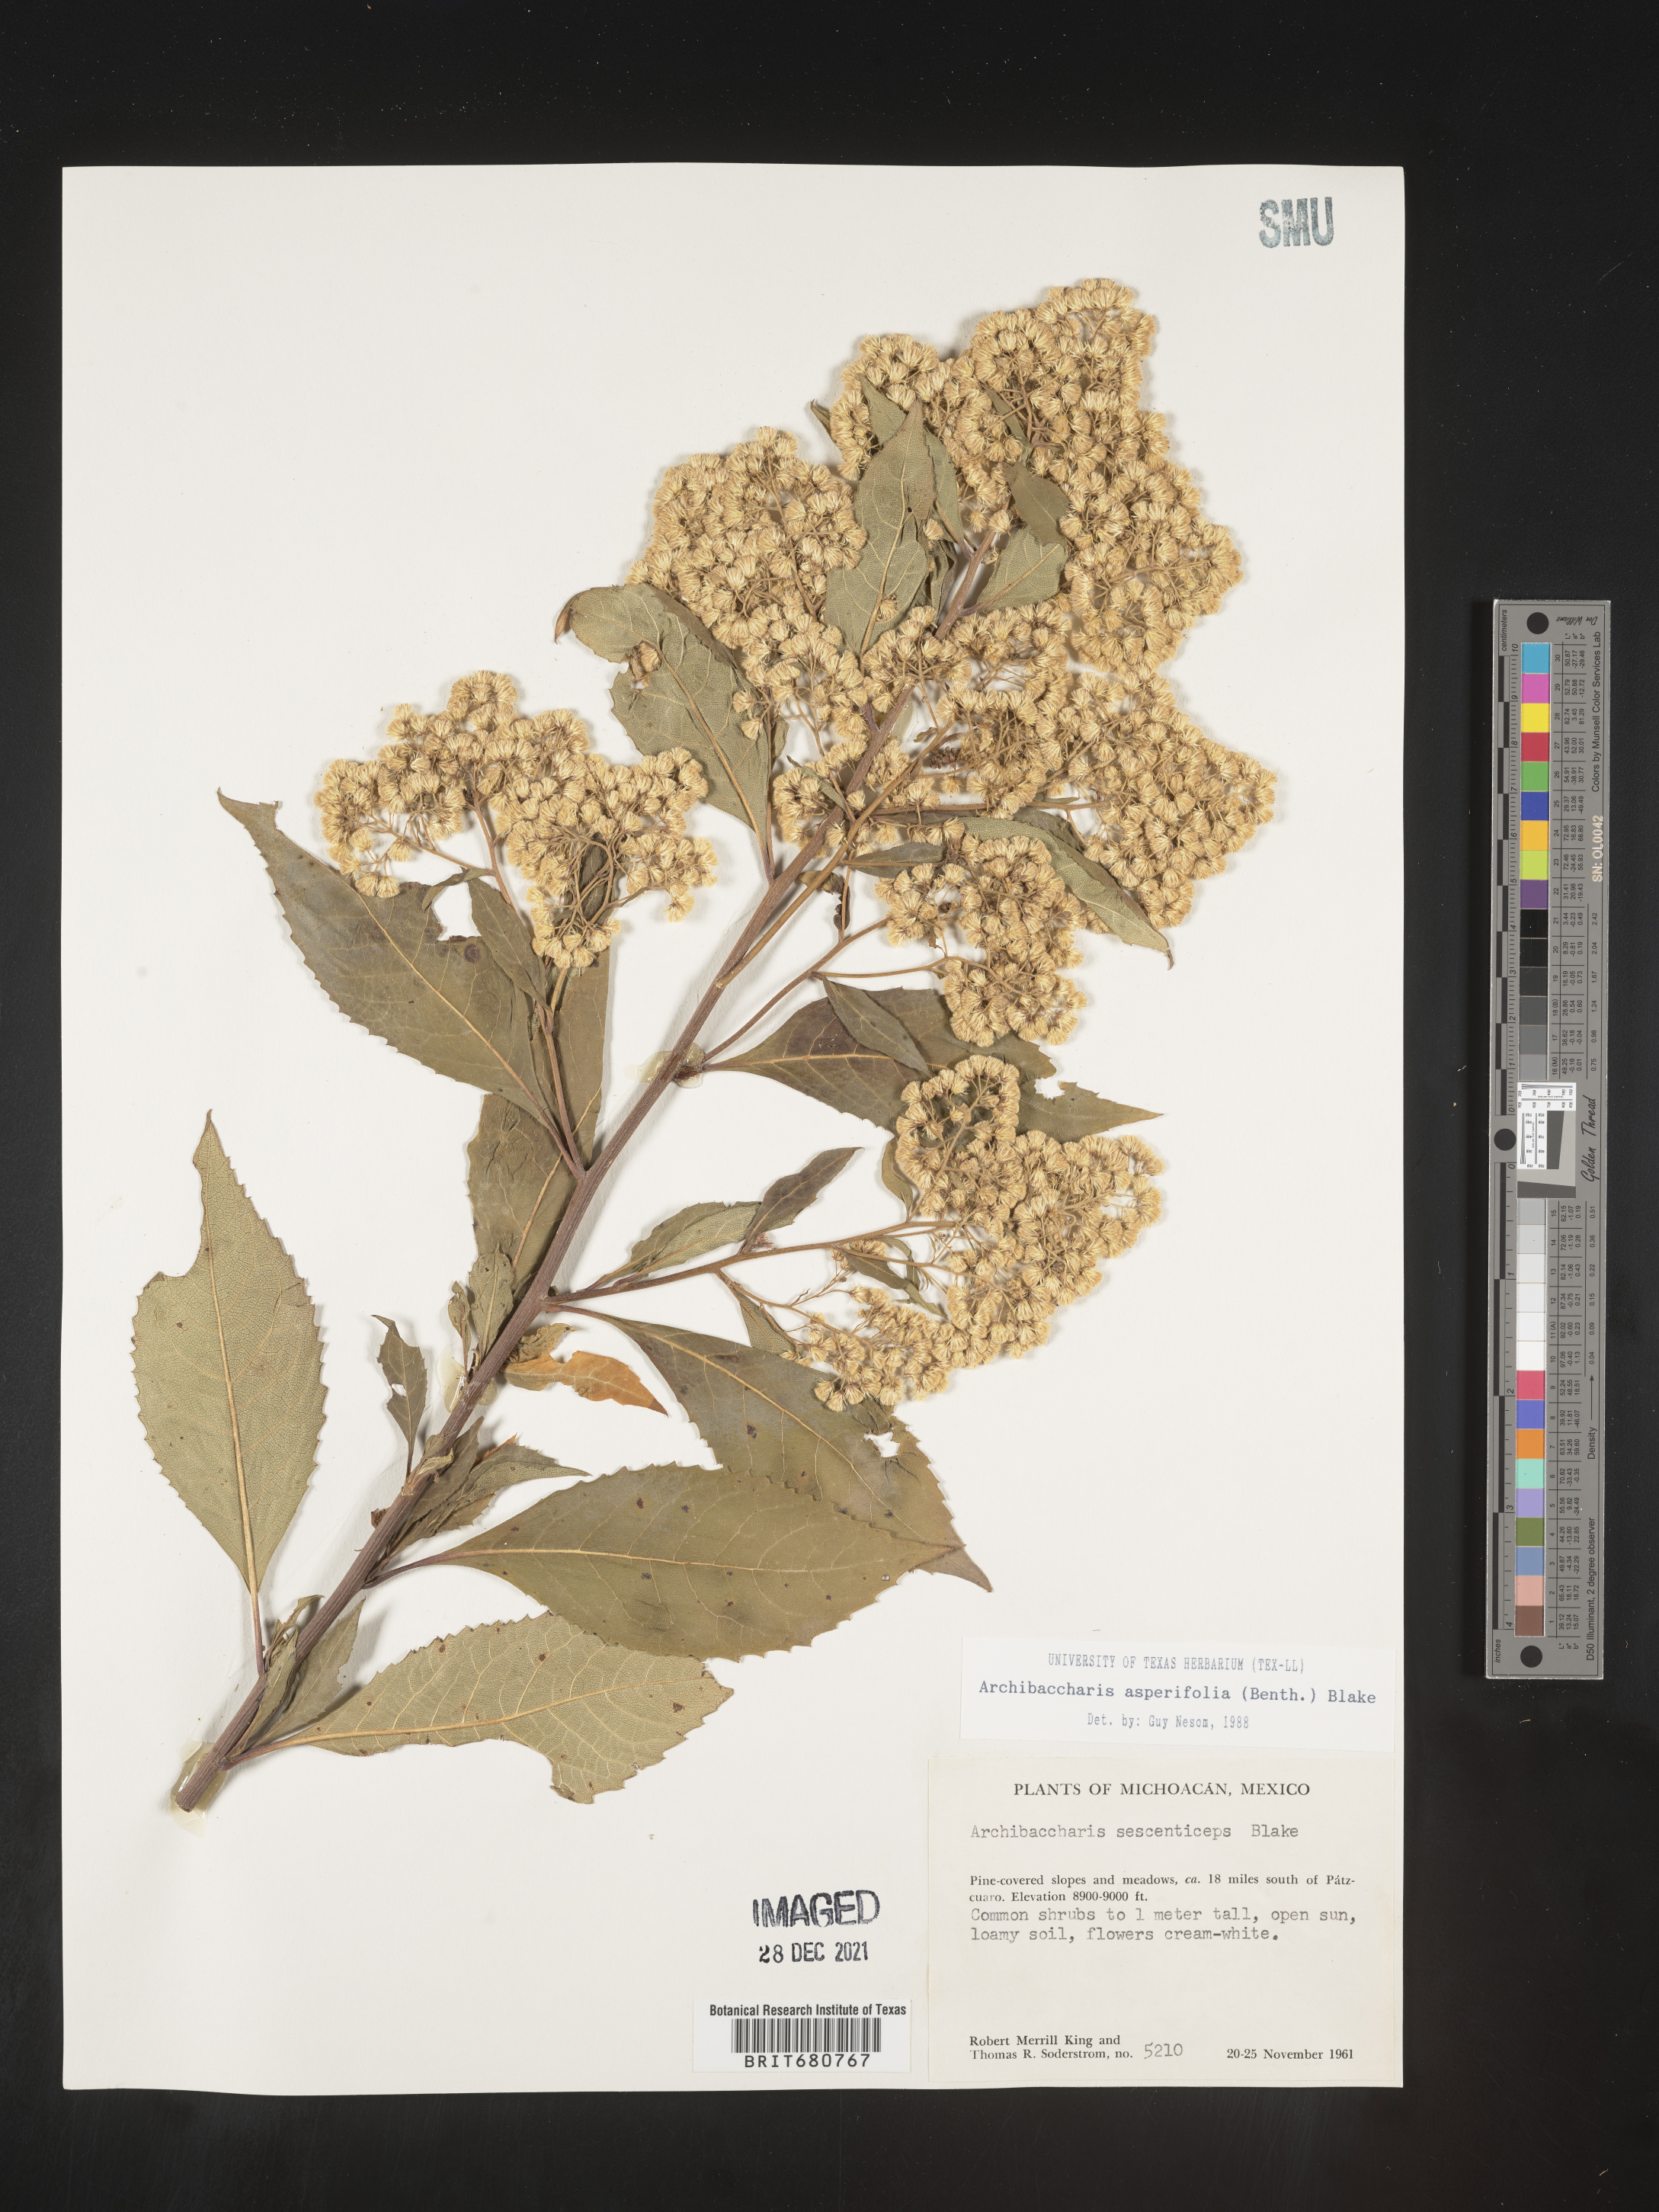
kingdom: Plantae
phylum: Tracheophyta
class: Magnoliopsida
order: Asterales
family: Asteraceae
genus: Archibaccharis
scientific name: Archibaccharis
